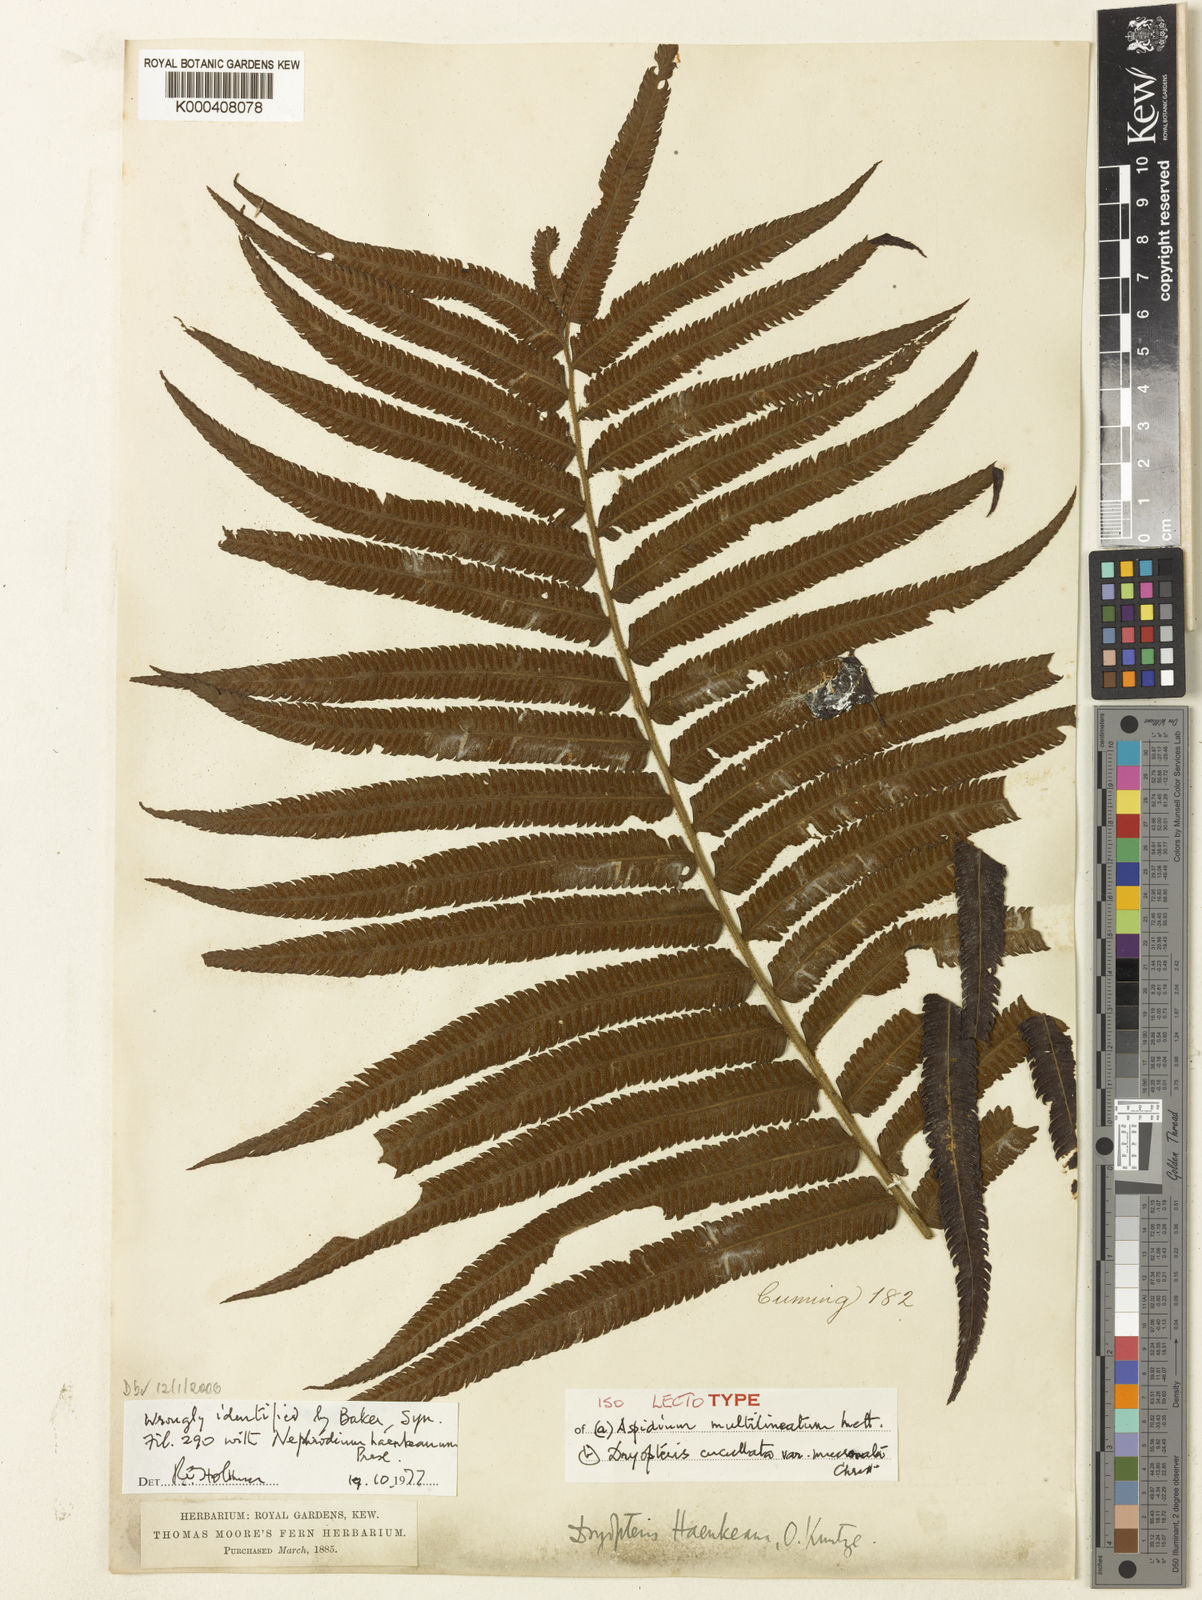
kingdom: Plantae
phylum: Tracheophyta
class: Polypodiopsida
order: Polypodiales
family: Thelypteridaceae
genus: Strophocaulon
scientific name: Strophocaulon unitum
